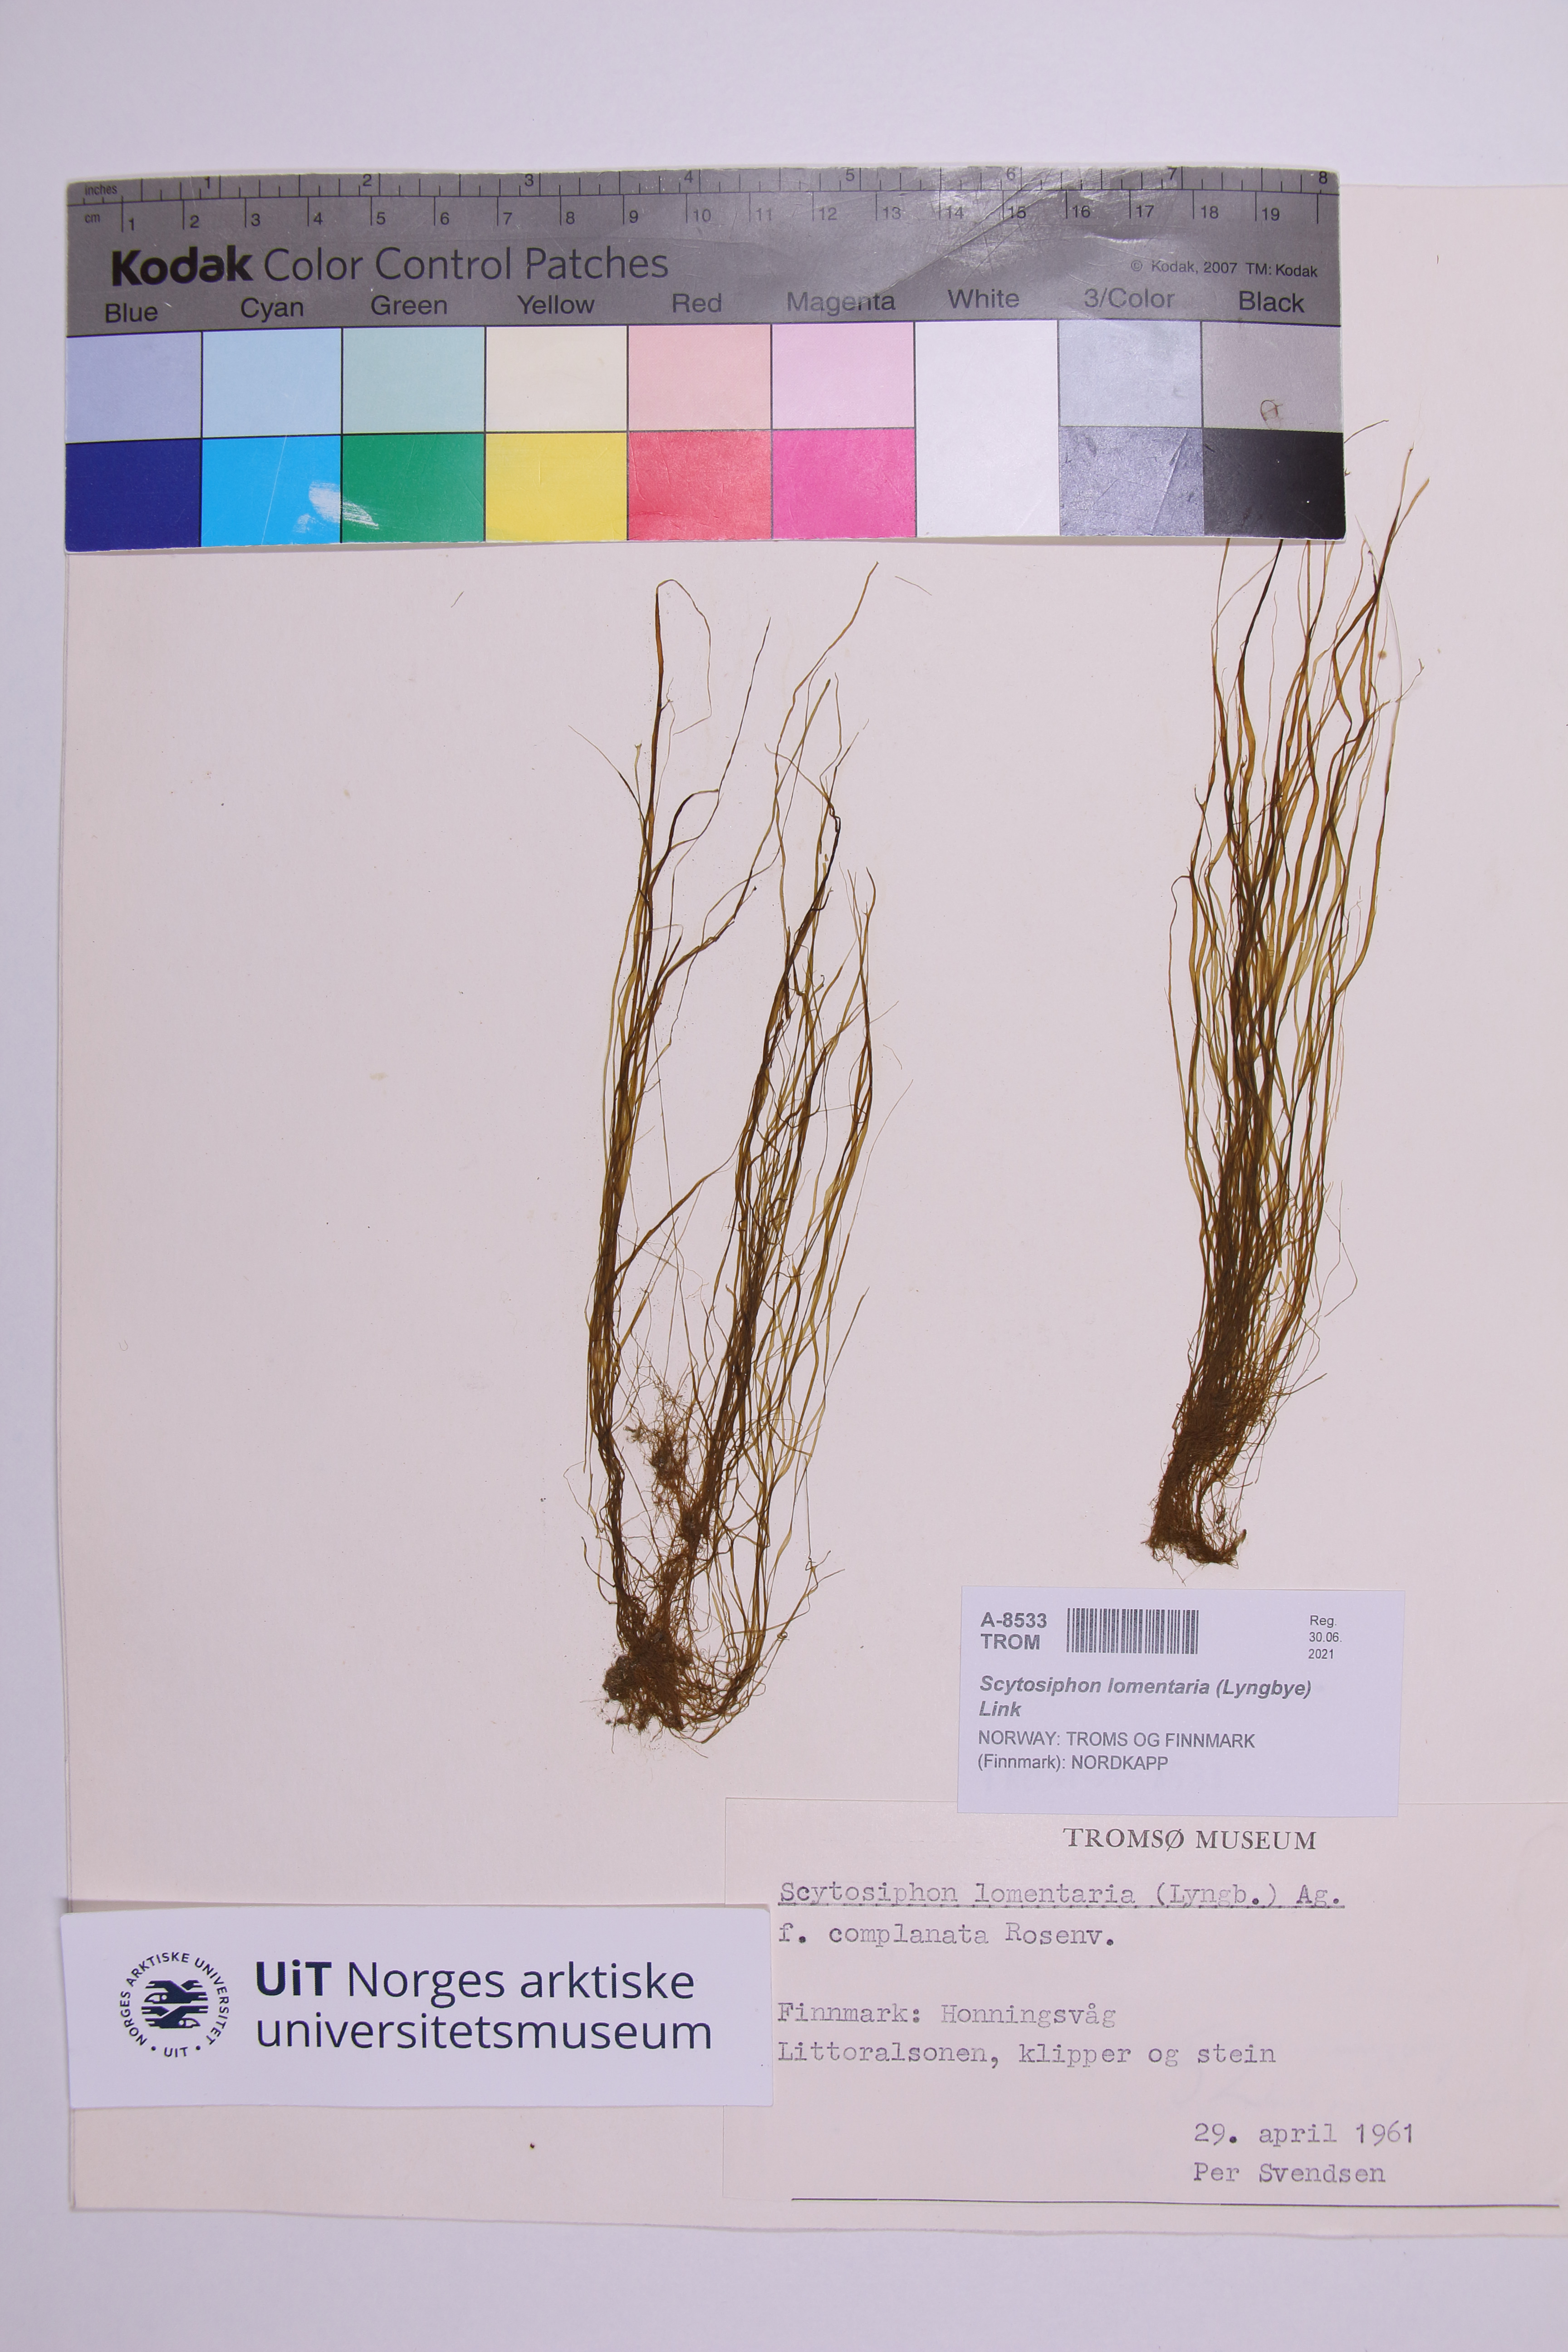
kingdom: Chromista
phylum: Ochrophyta
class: Phaeophyceae
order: Scytosiphonales
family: Scytosiphonaceae
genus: Scytosiphon
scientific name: Scytosiphon lomentaria
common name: Beanweed
